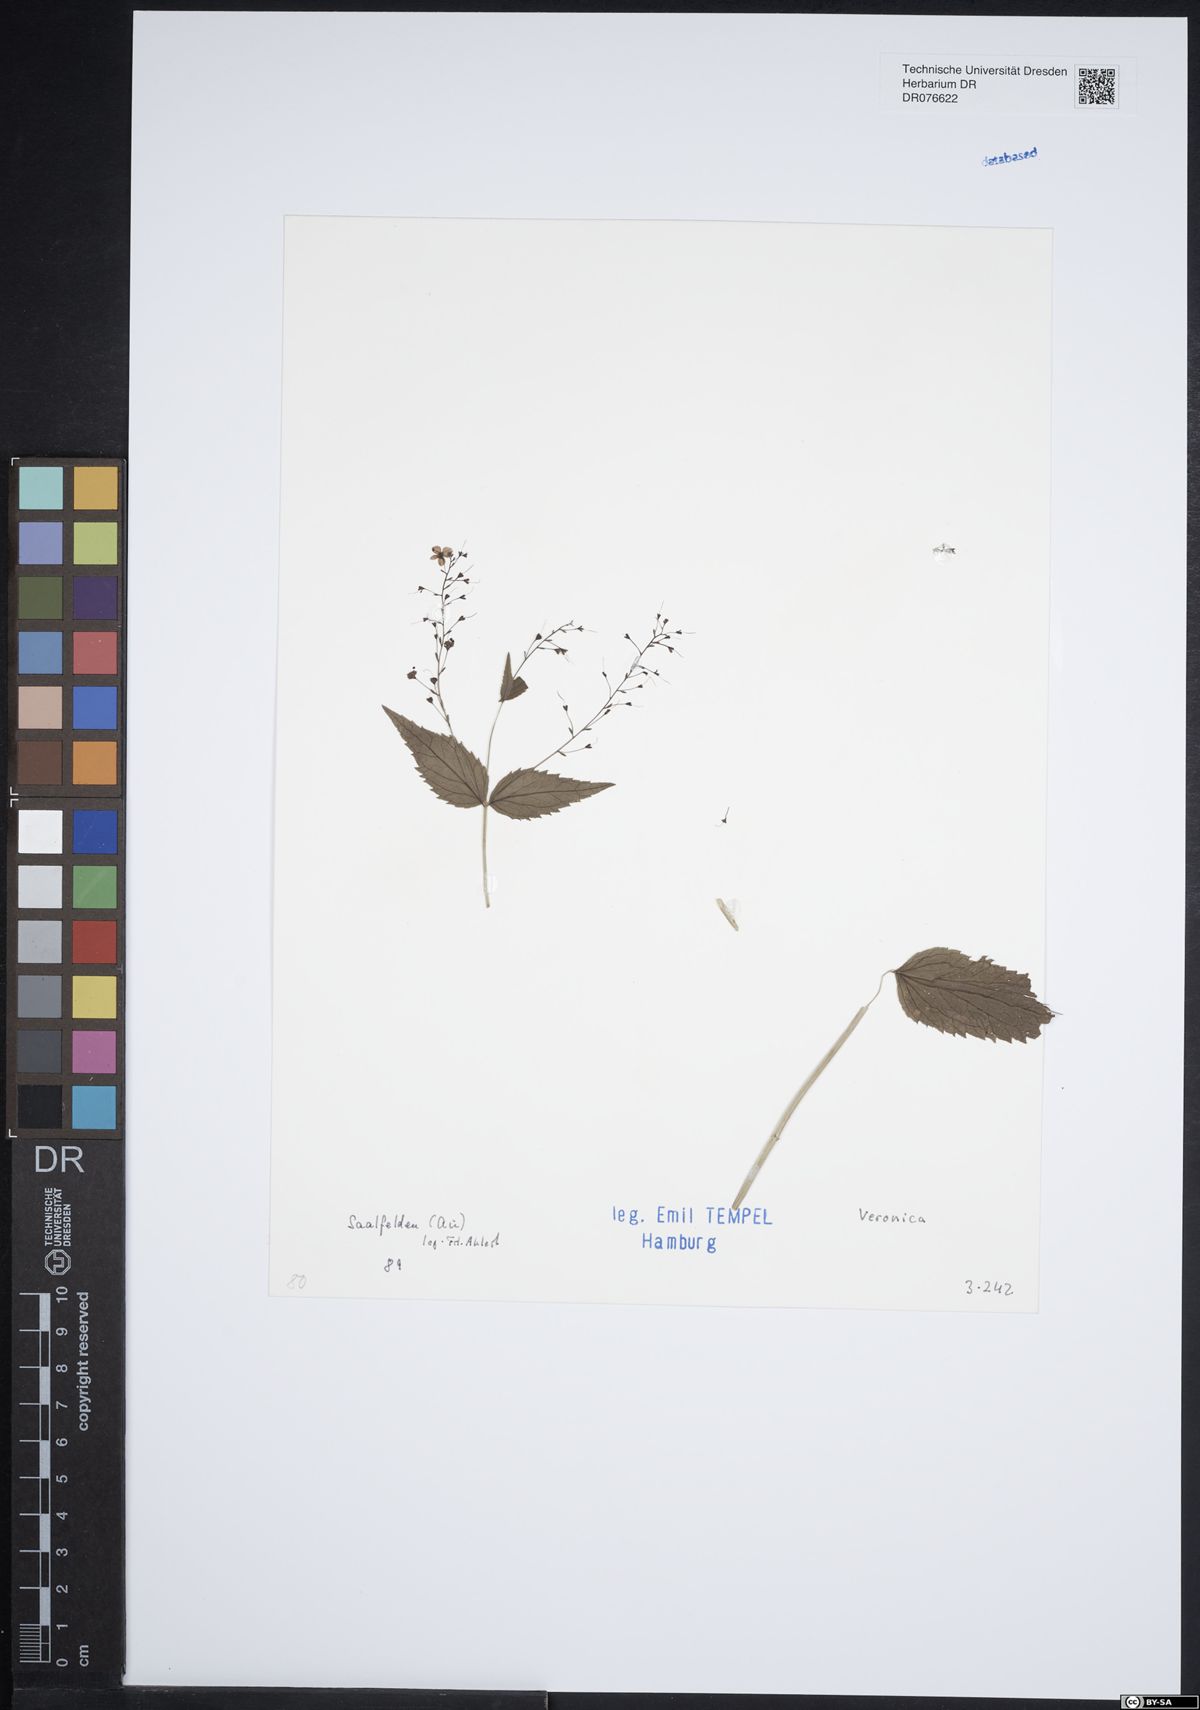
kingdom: Plantae
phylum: Tracheophyta
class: Magnoliopsida
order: Lamiales
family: Plantaginaceae
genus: Veronica
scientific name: Veronica
